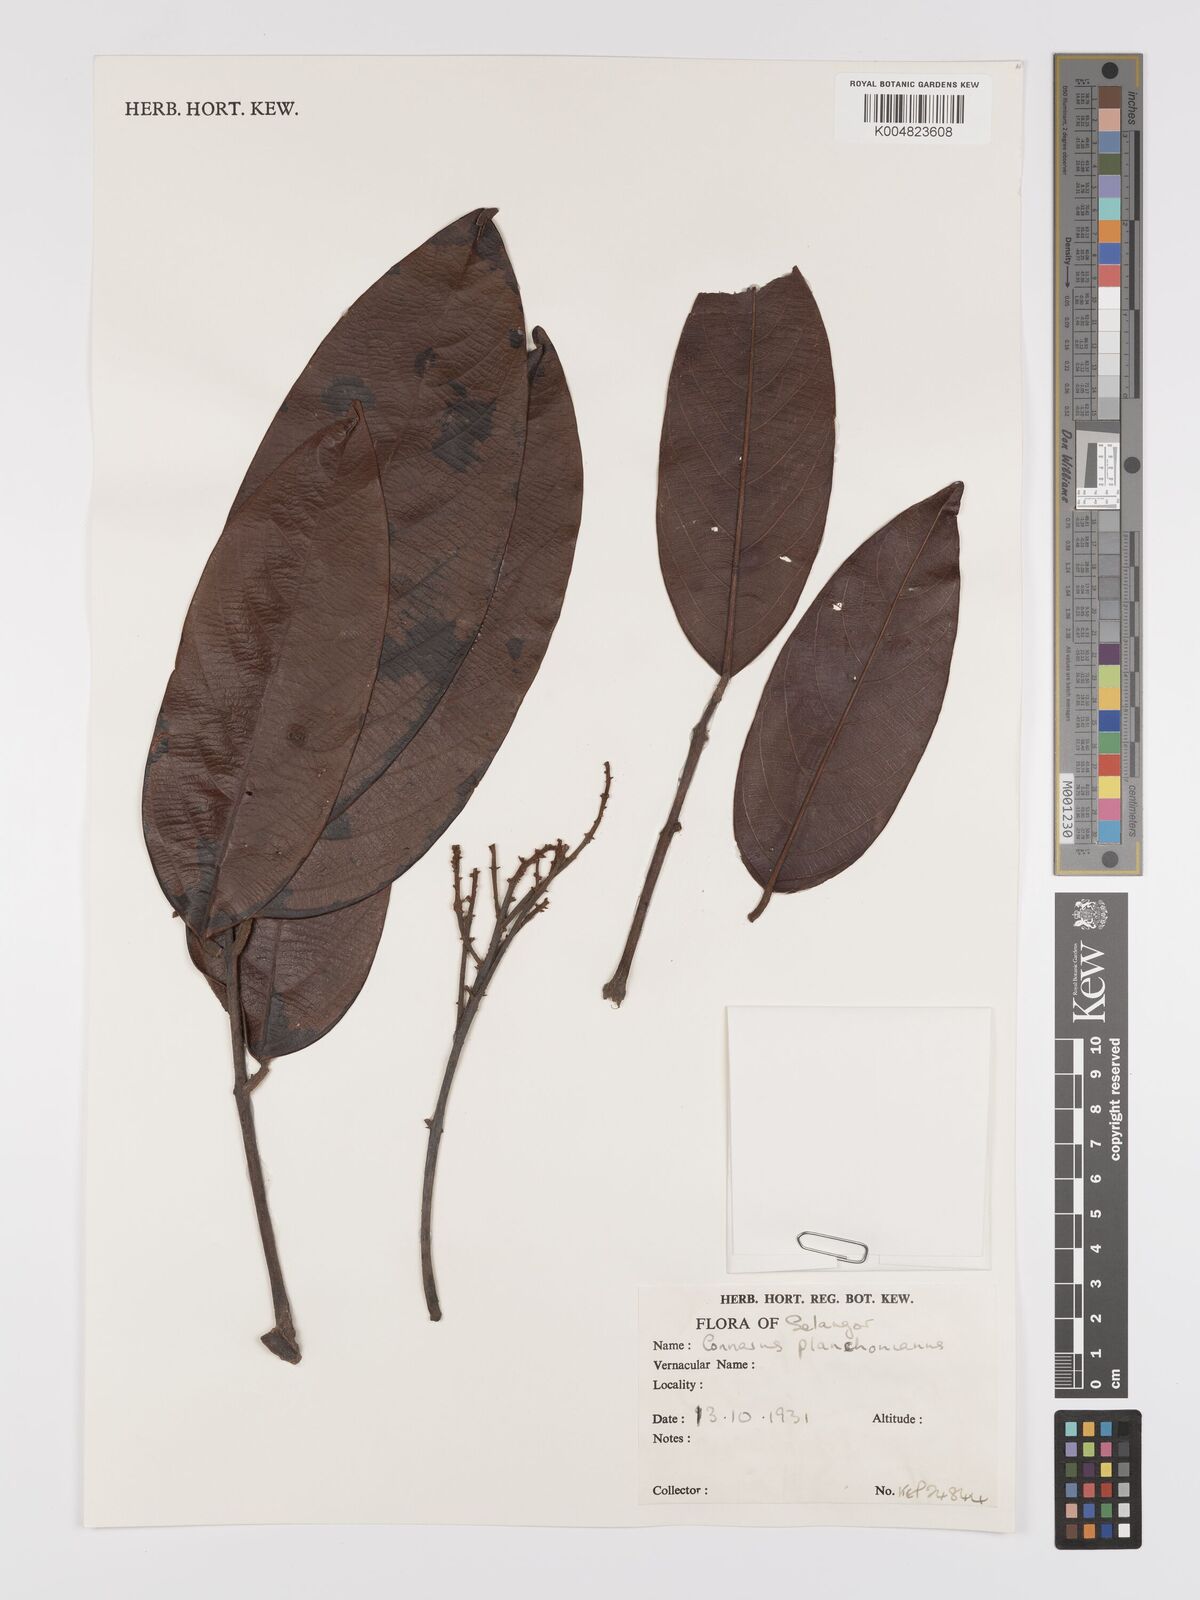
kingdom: Plantae
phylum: Tracheophyta
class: Magnoliopsida
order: Oxalidales
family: Connaraceae
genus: Connarus
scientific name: Connarus planchonianus
